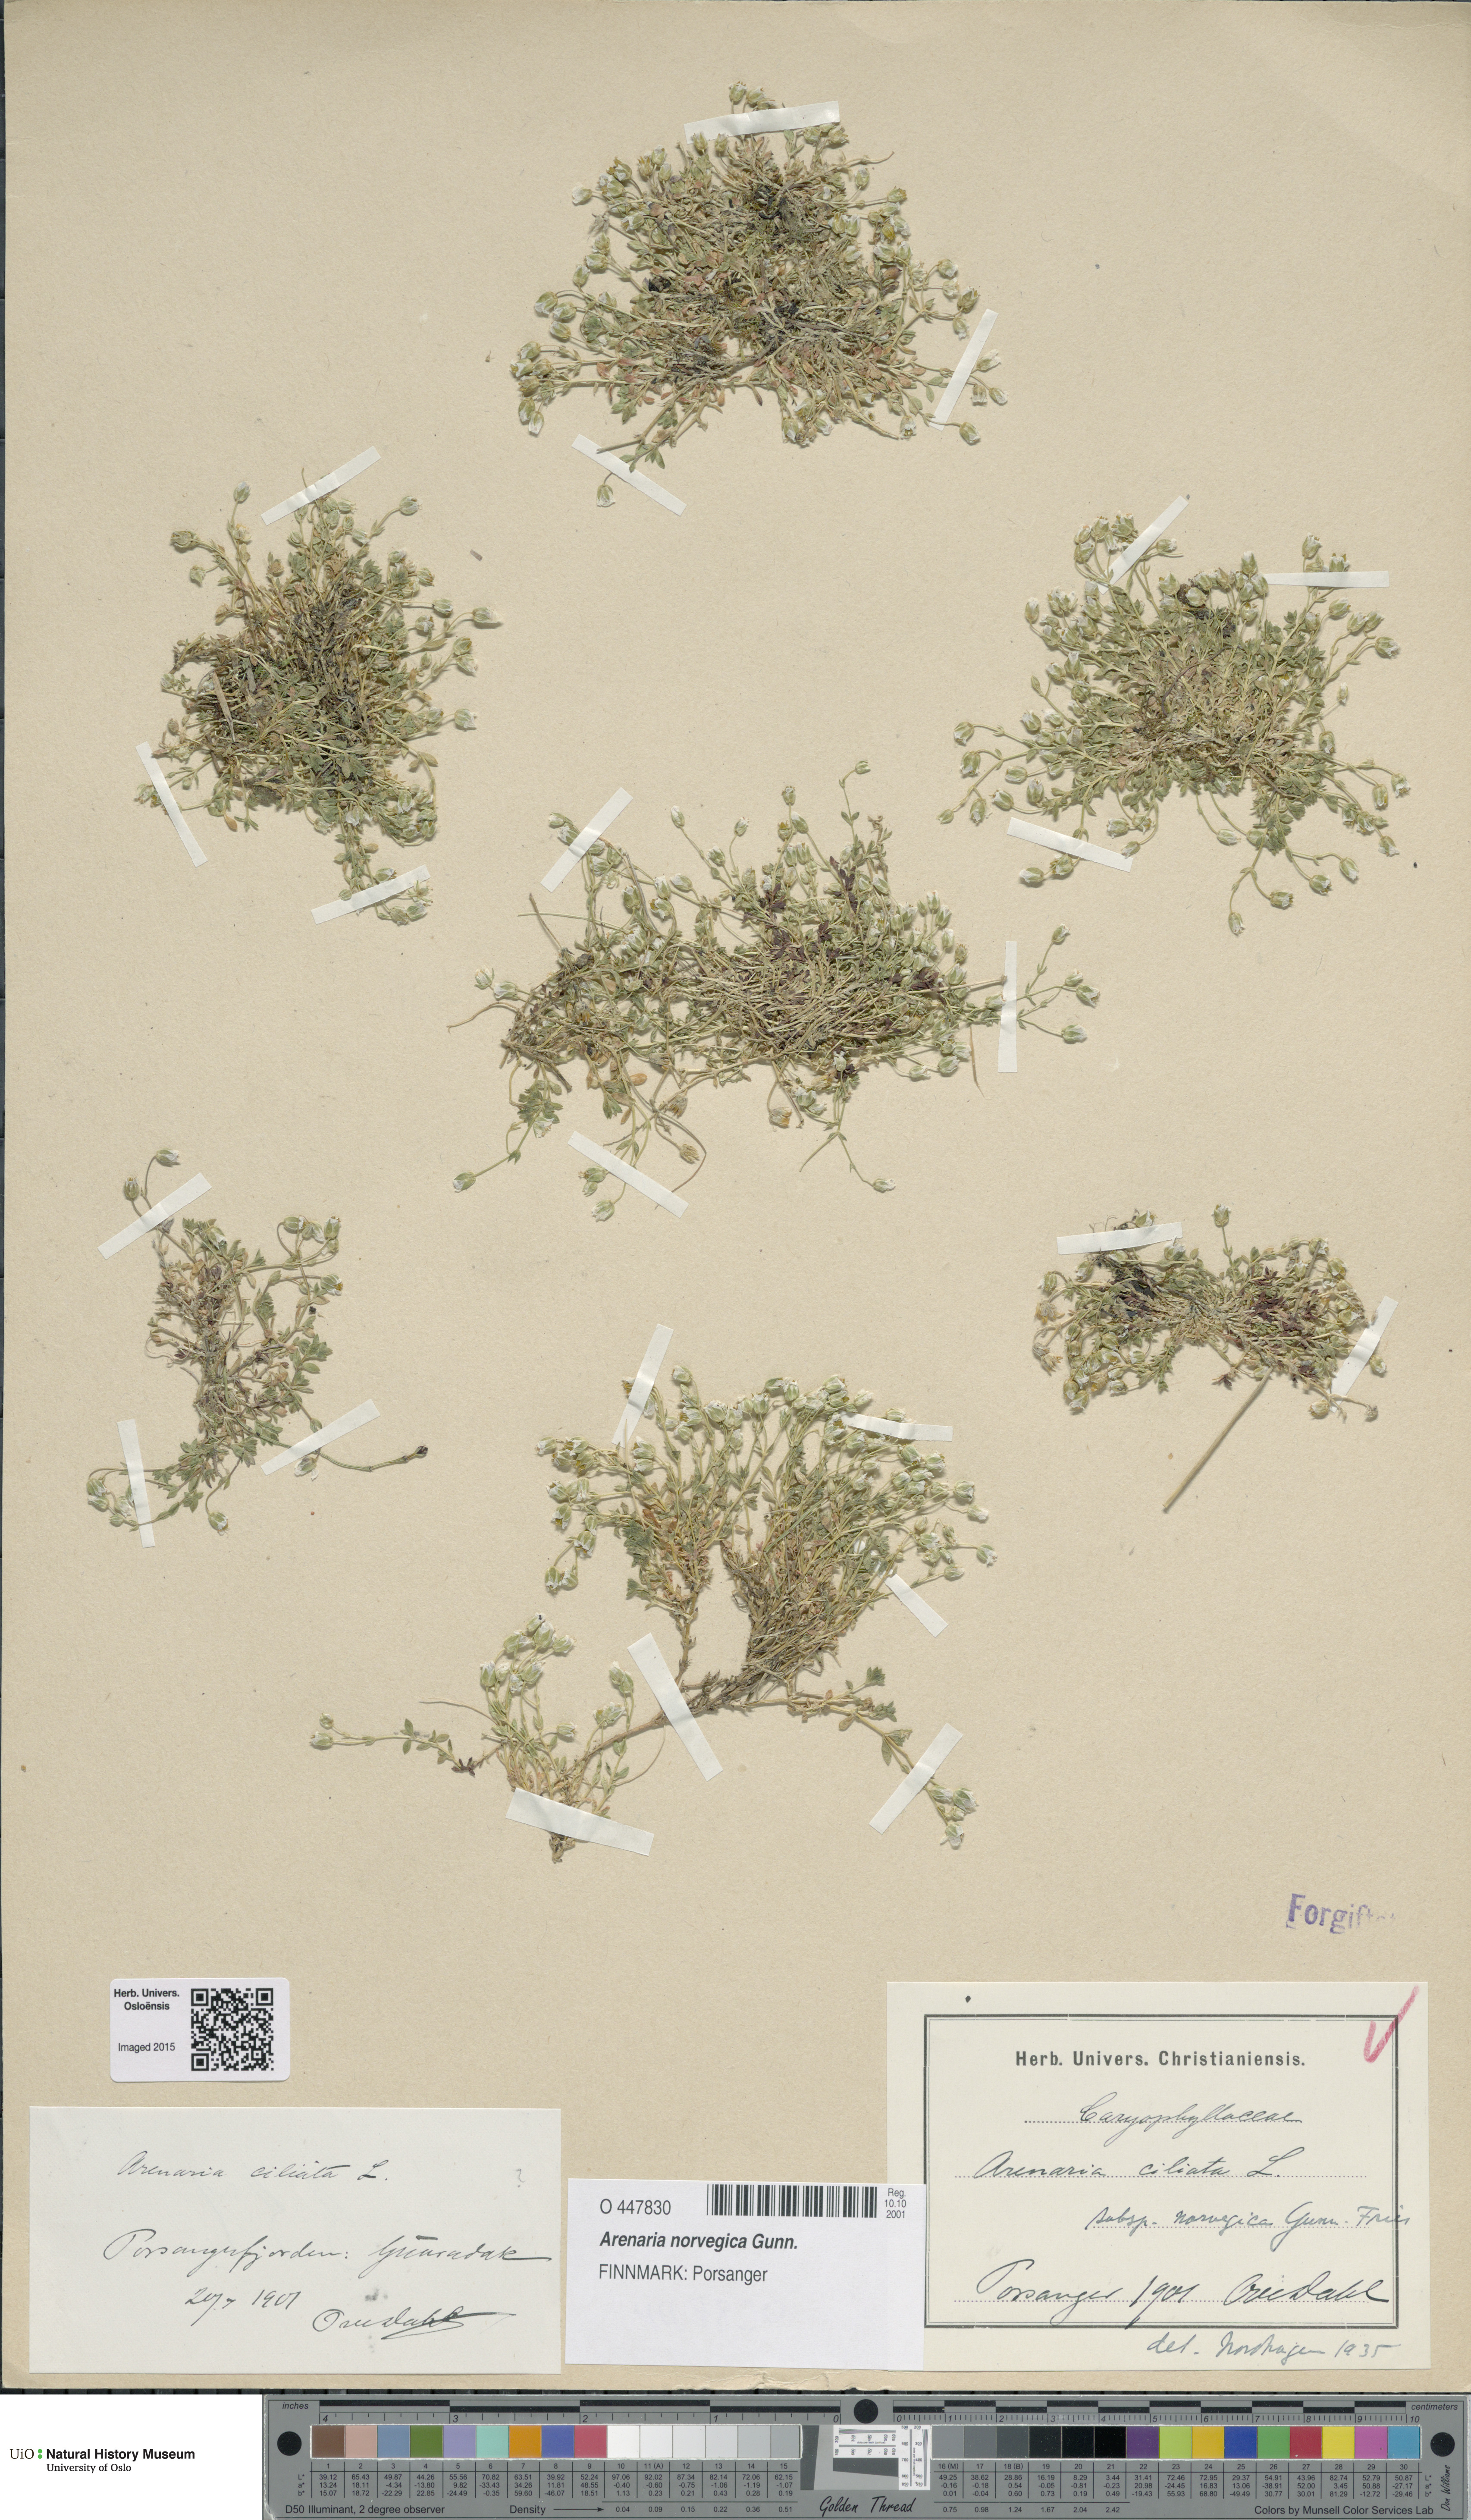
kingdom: Plantae
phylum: Tracheophyta
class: Magnoliopsida
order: Caryophyllales
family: Caryophyllaceae
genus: Arenaria
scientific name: Arenaria norvegica
